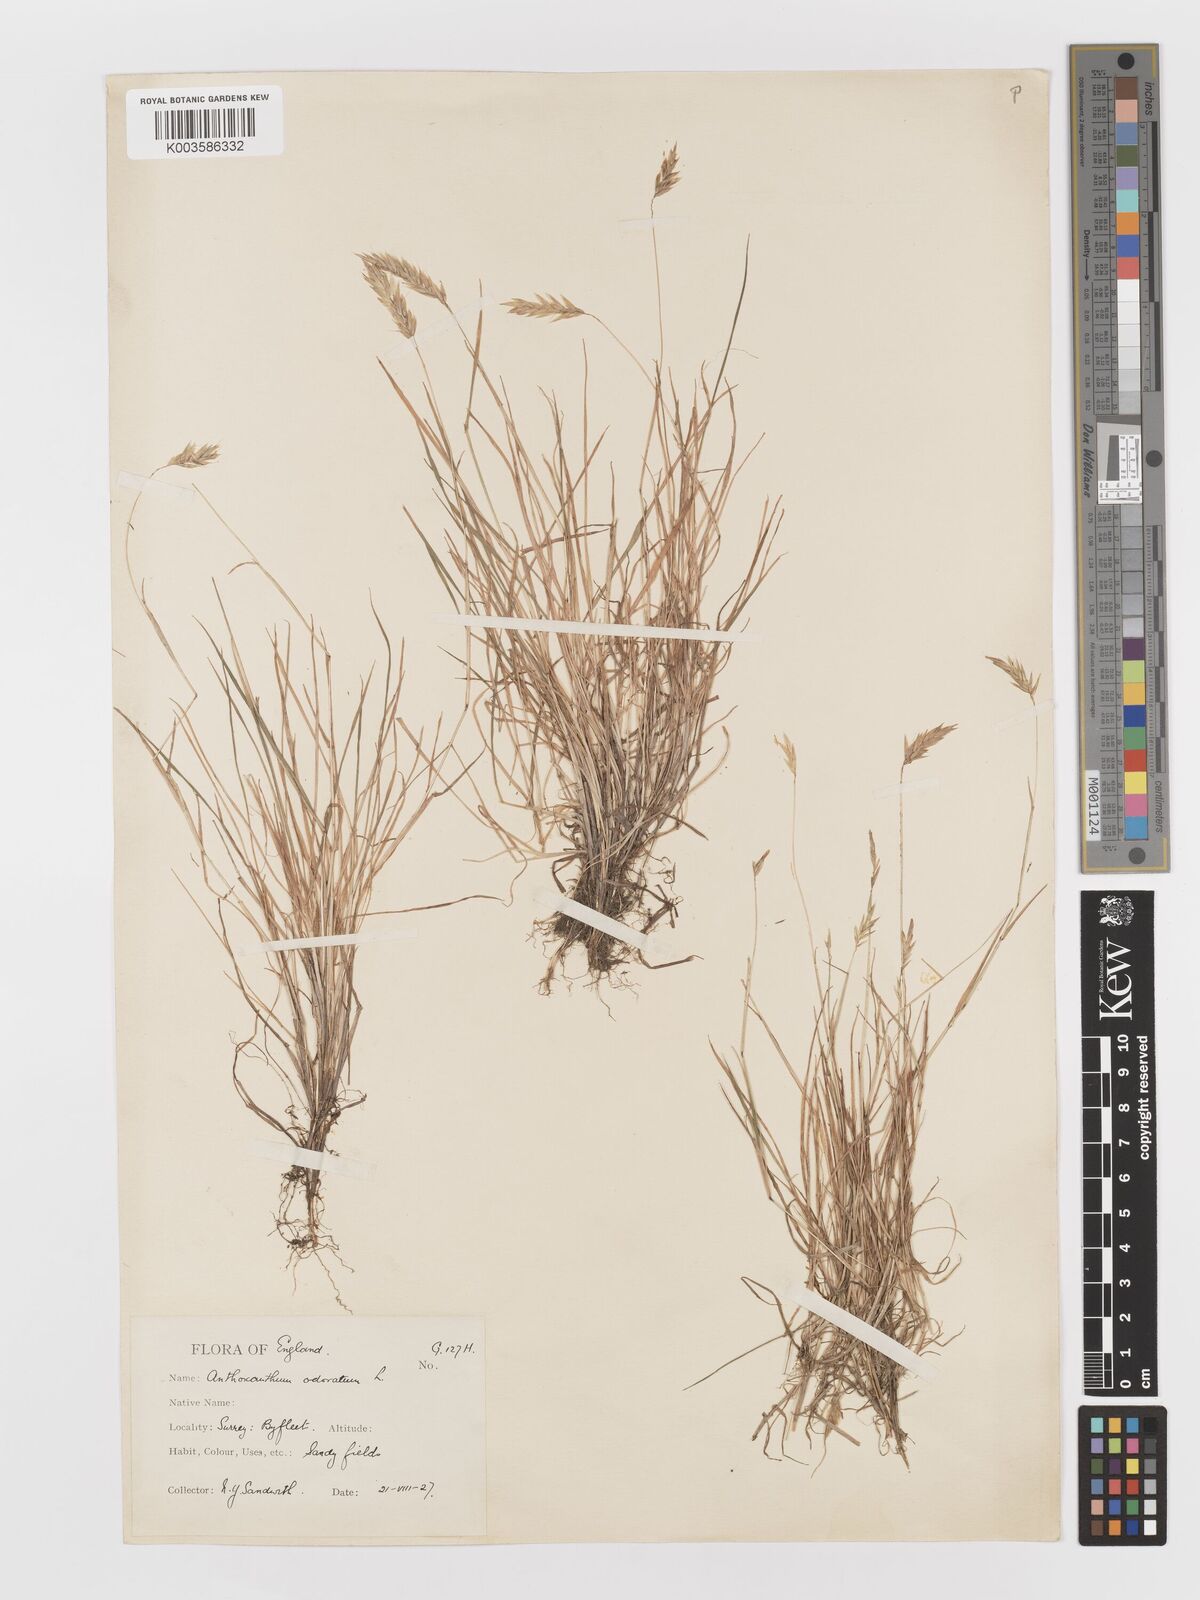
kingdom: Plantae
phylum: Tracheophyta
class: Liliopsida
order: Poales
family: Poaceae
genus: Anthoxanthum
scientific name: Anthoxanthum odoratum
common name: Sweet vernalgrass
